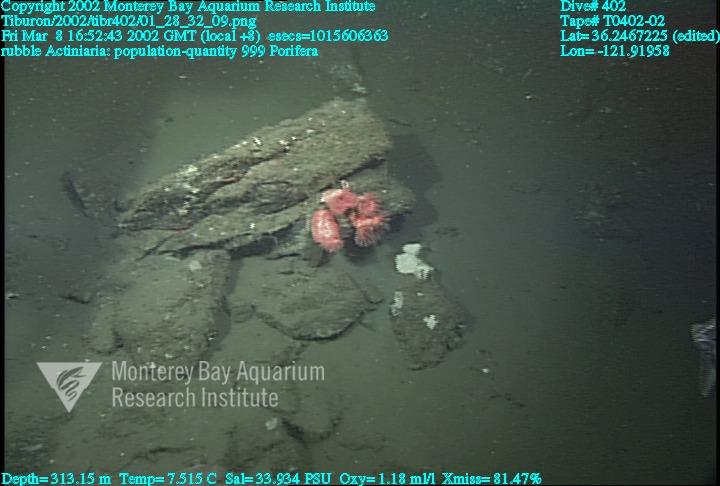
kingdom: Animalia
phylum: Porifera
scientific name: Porifera
